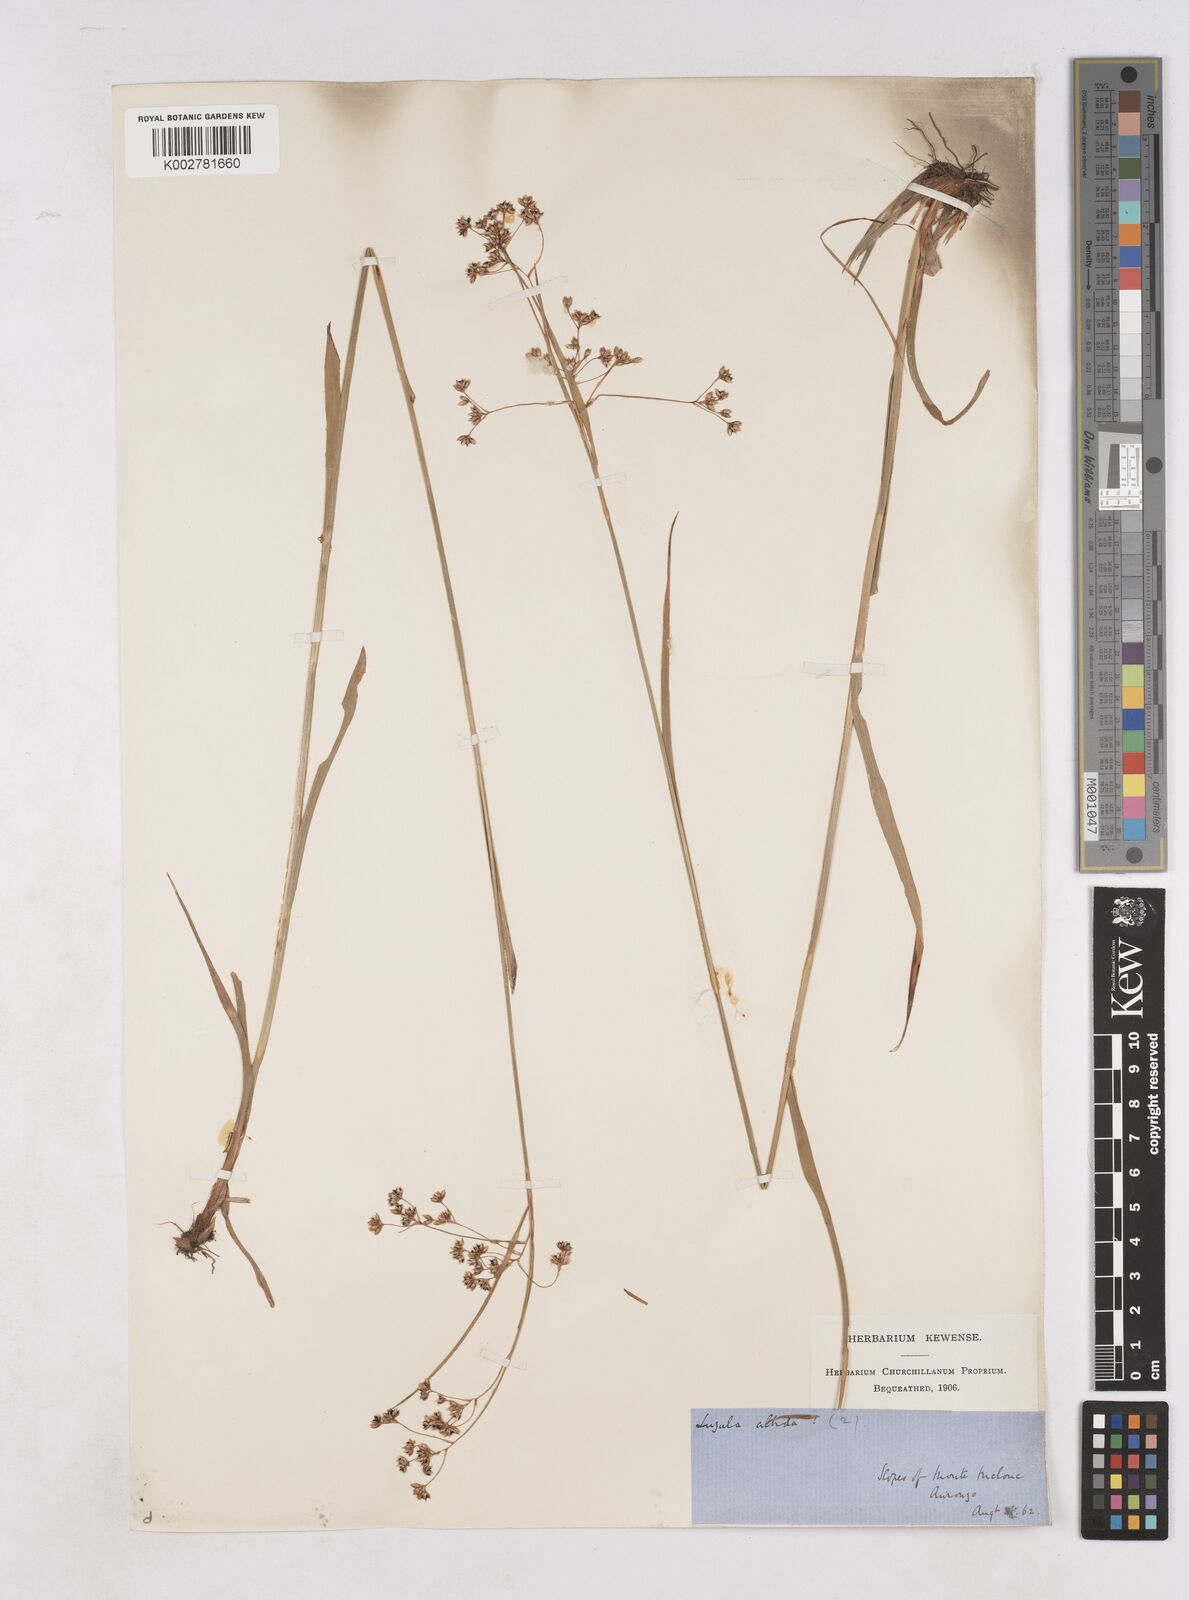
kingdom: Plantae
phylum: Tracheophyta
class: Liliopsida
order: Poales
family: Juncaceae
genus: Luzula
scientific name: Luzula luzuloides
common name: White wood-rush
